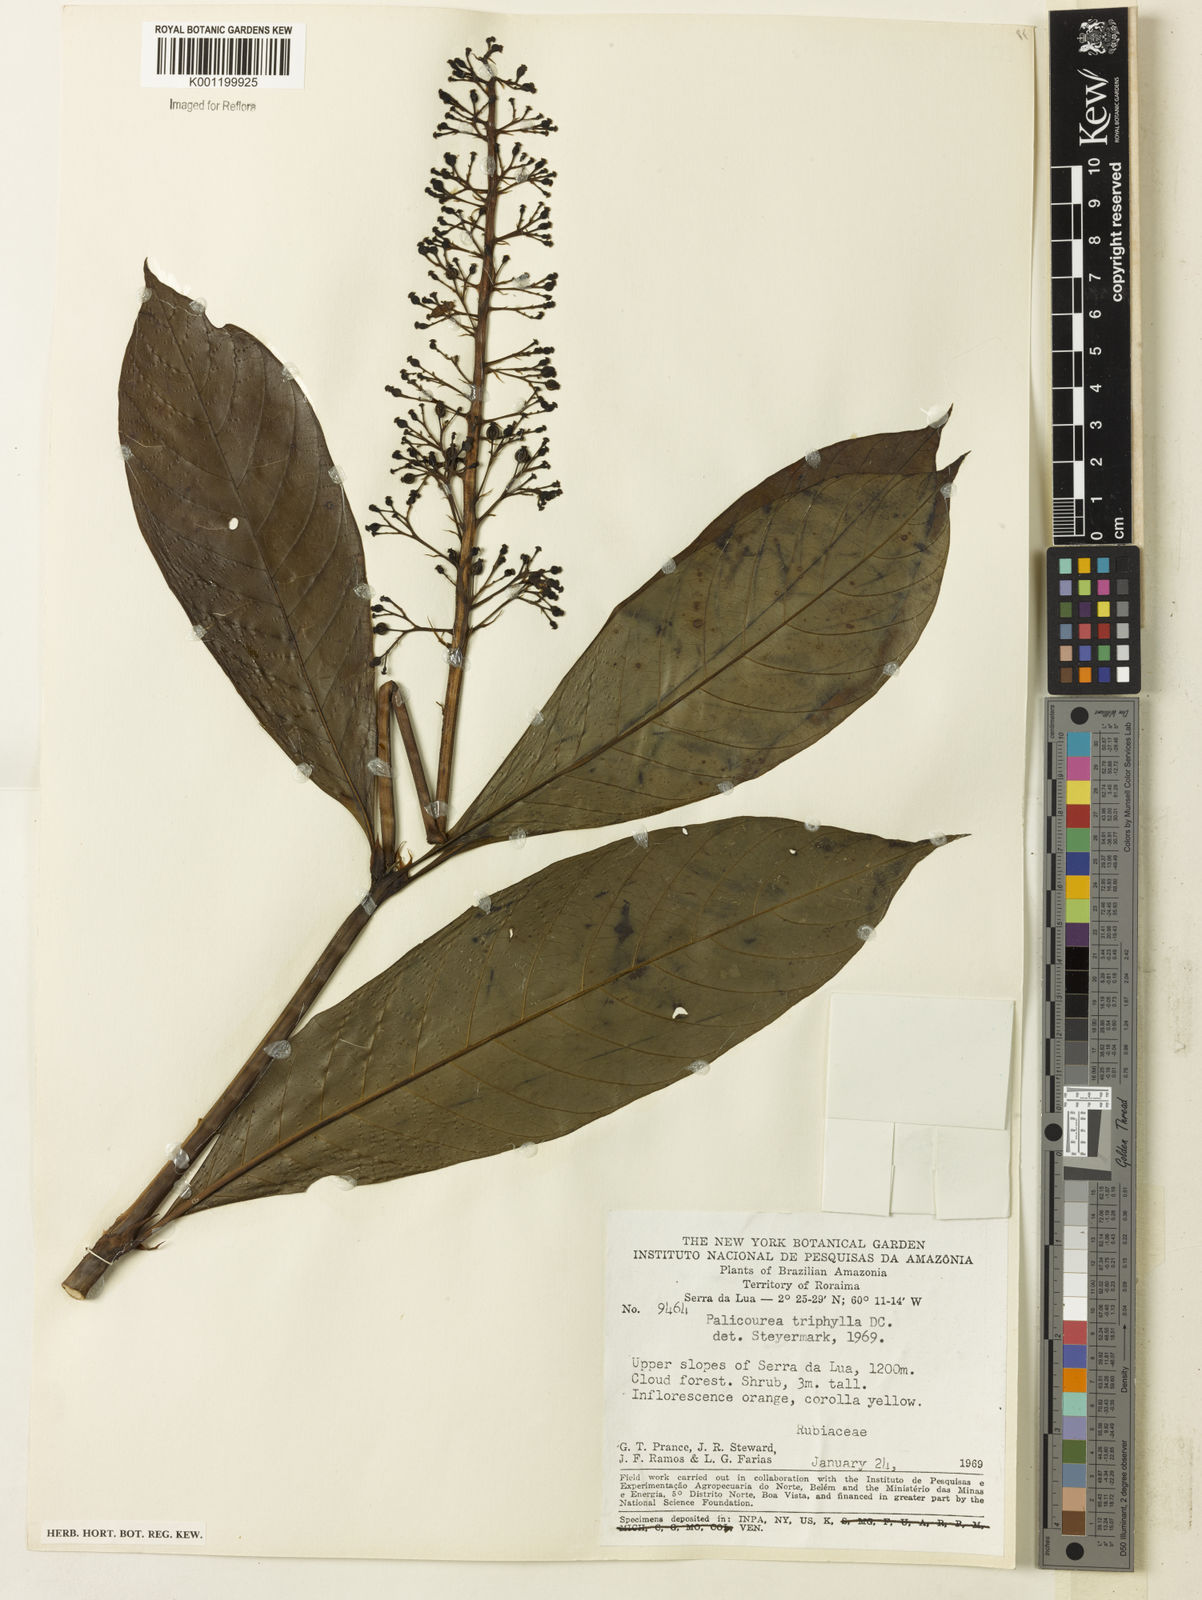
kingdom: Plantae
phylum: Tracheophyta
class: Magnoliopsida
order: Gentianales
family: Rubiaceae
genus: Palicourea
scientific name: Palicourea triphylla
